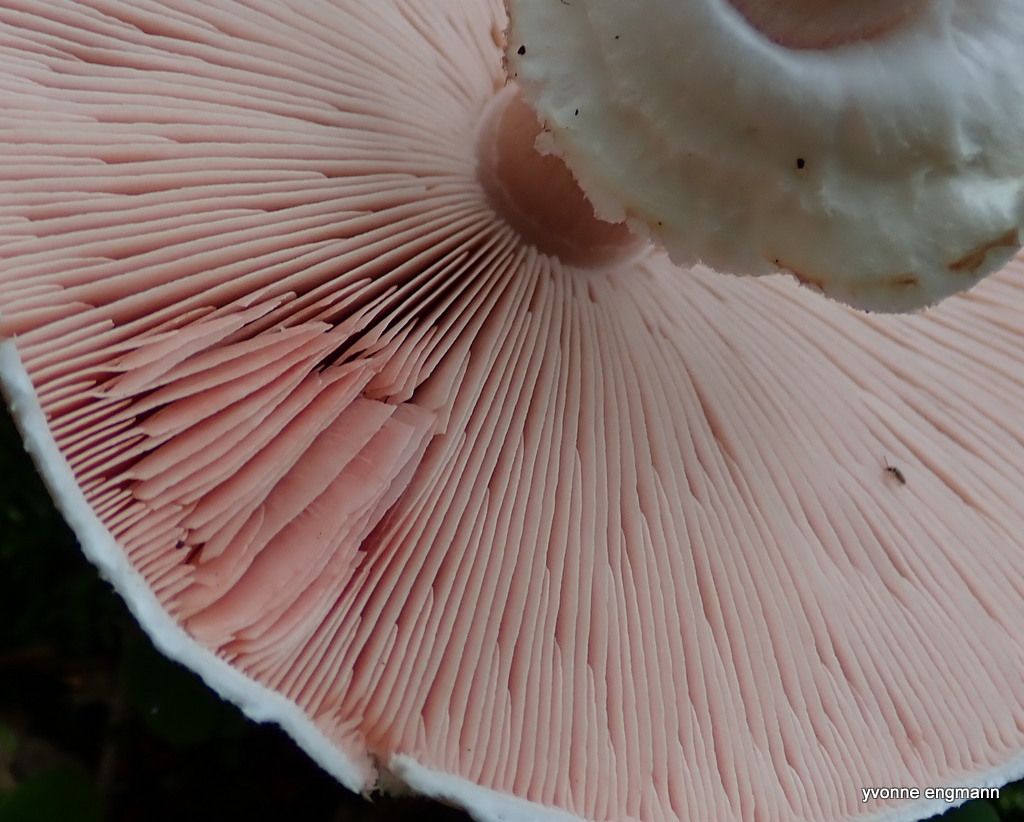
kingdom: Fungi
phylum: Basidiomycota
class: Agaricomycetes
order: Agaricales
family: Agaricaceae
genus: Agaricus
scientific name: Agaricus impudicus
